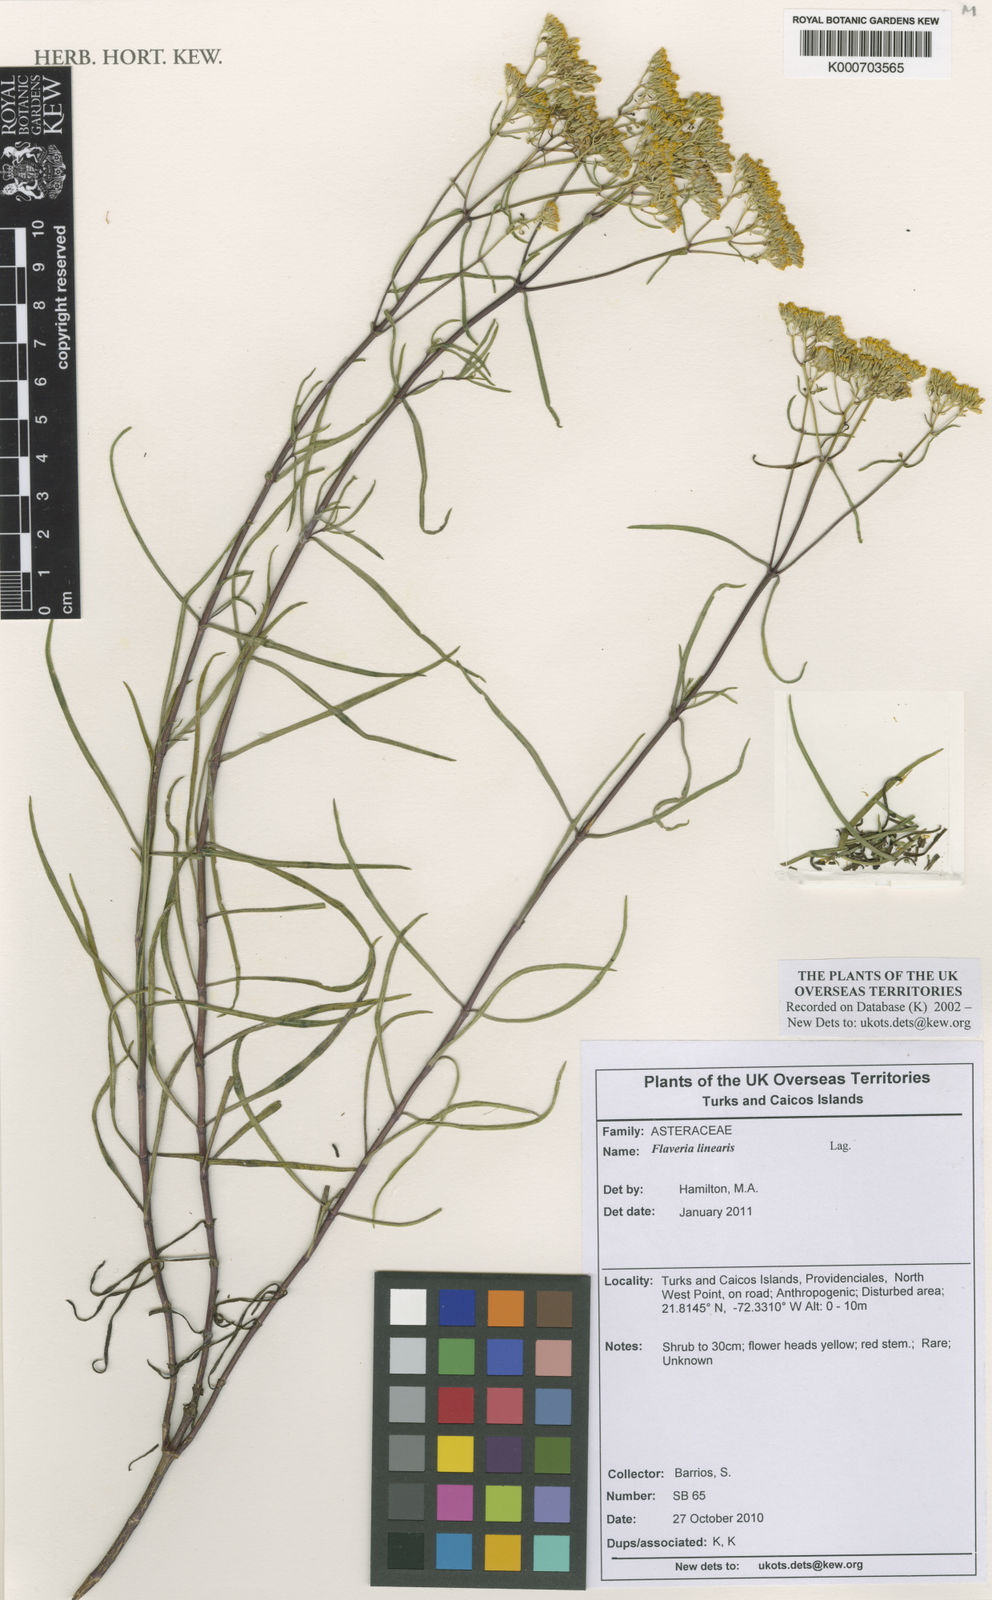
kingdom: Plantae
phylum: Tracheophyta
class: Magnoliopsida
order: Asterales
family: Asteraceae
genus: Flaveria
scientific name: Flaveria linearis
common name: Yellowtop
